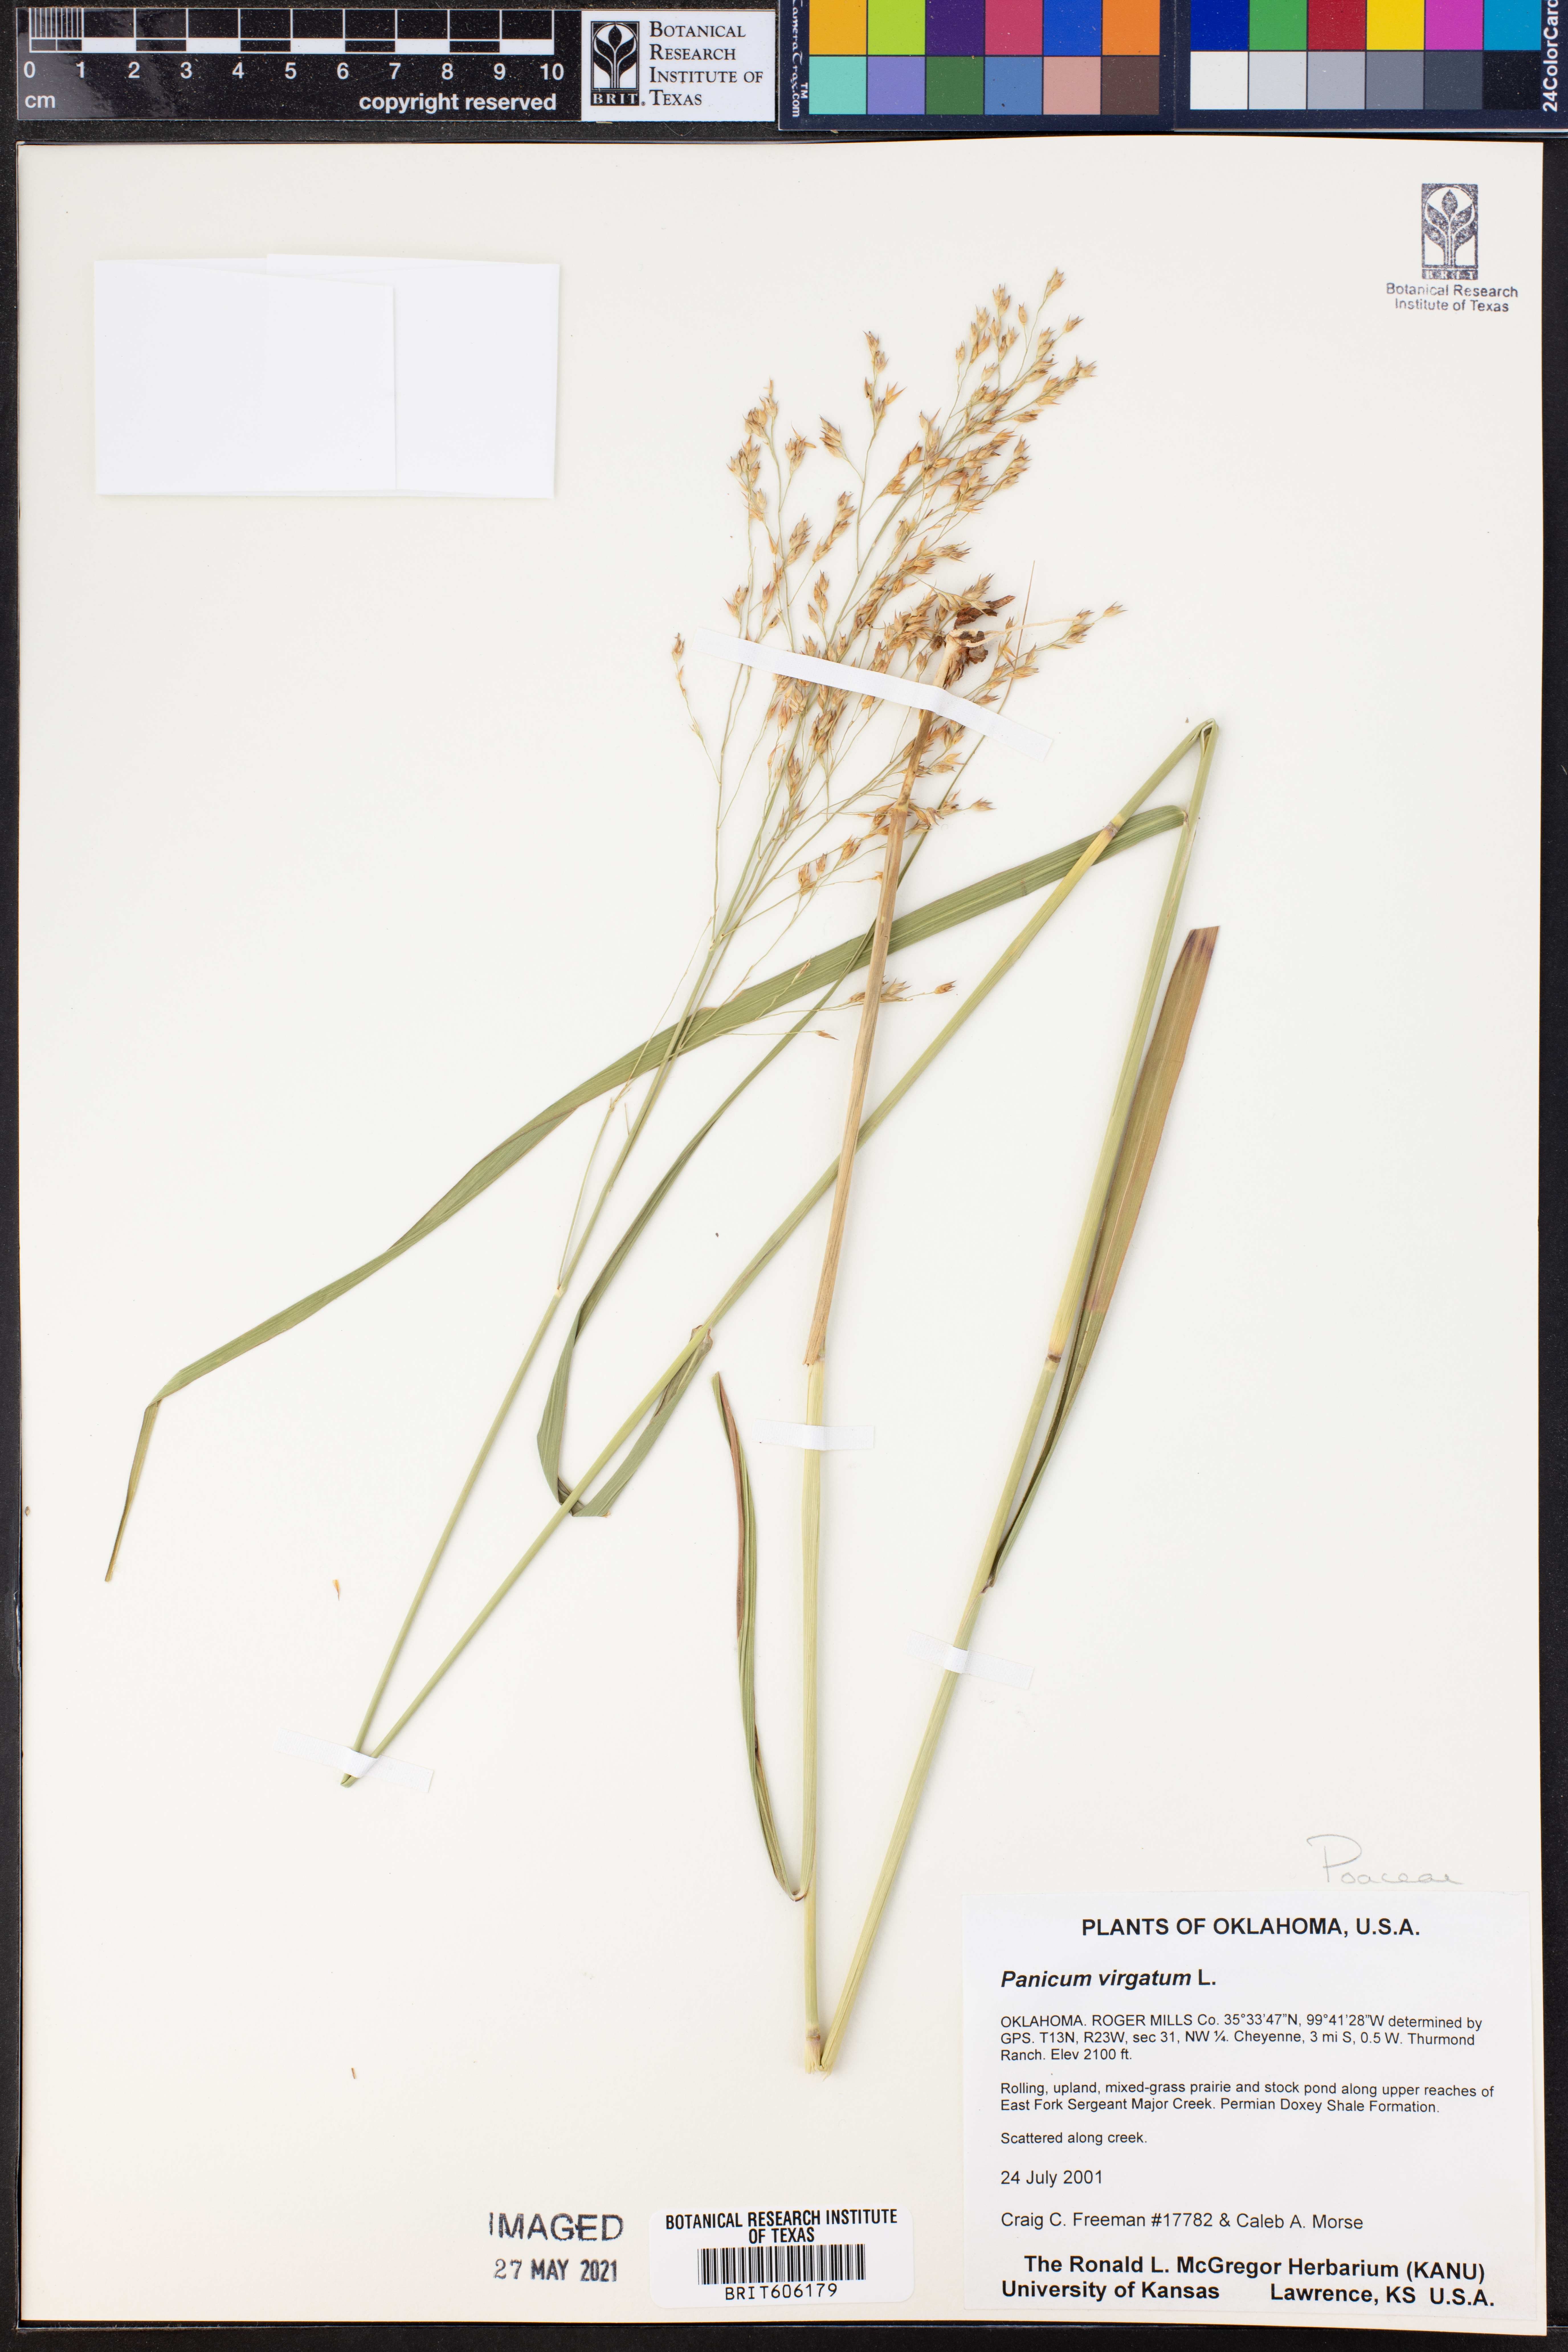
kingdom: Plantae
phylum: Tracheophyta
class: Liliopsida
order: Poales
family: Poaceae
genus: Panicum
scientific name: Panicum virgatum
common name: Switchgrass
